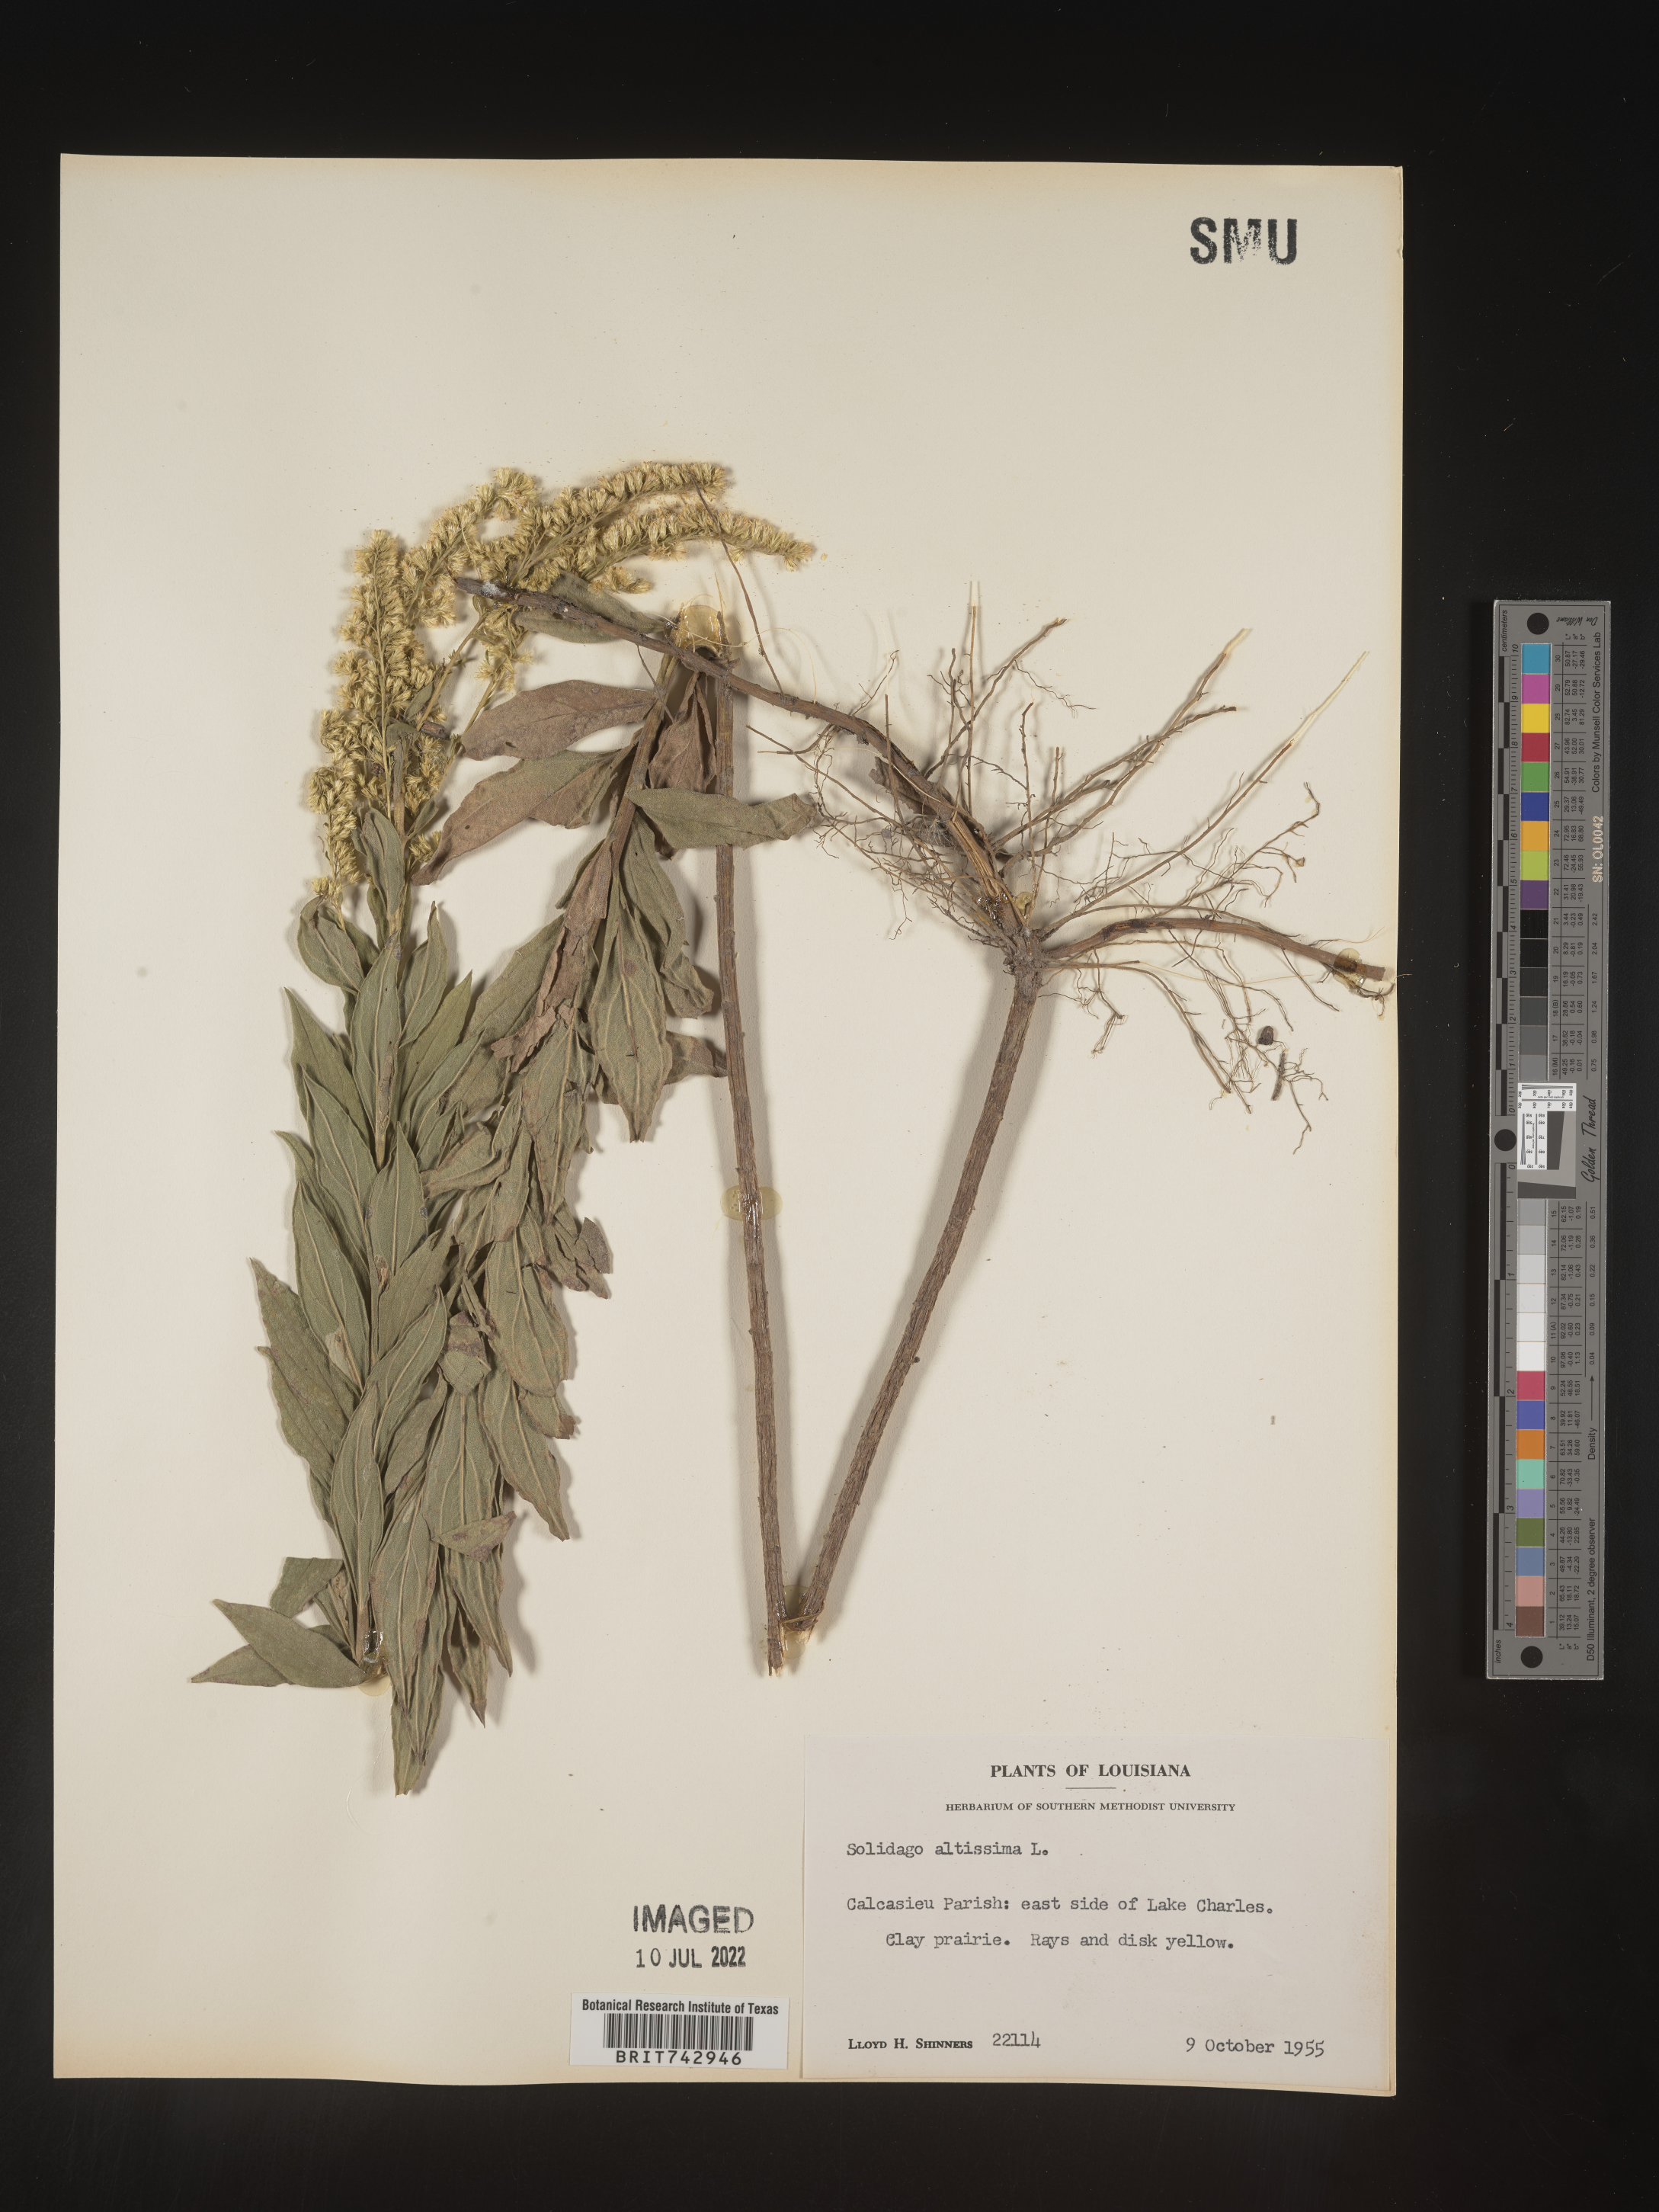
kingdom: Plantae
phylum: Tracheophyta
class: Magnoliopsida
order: Asterales
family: Asteraceae
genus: Solidago
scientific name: Solidago altissima
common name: Late goldenrod
